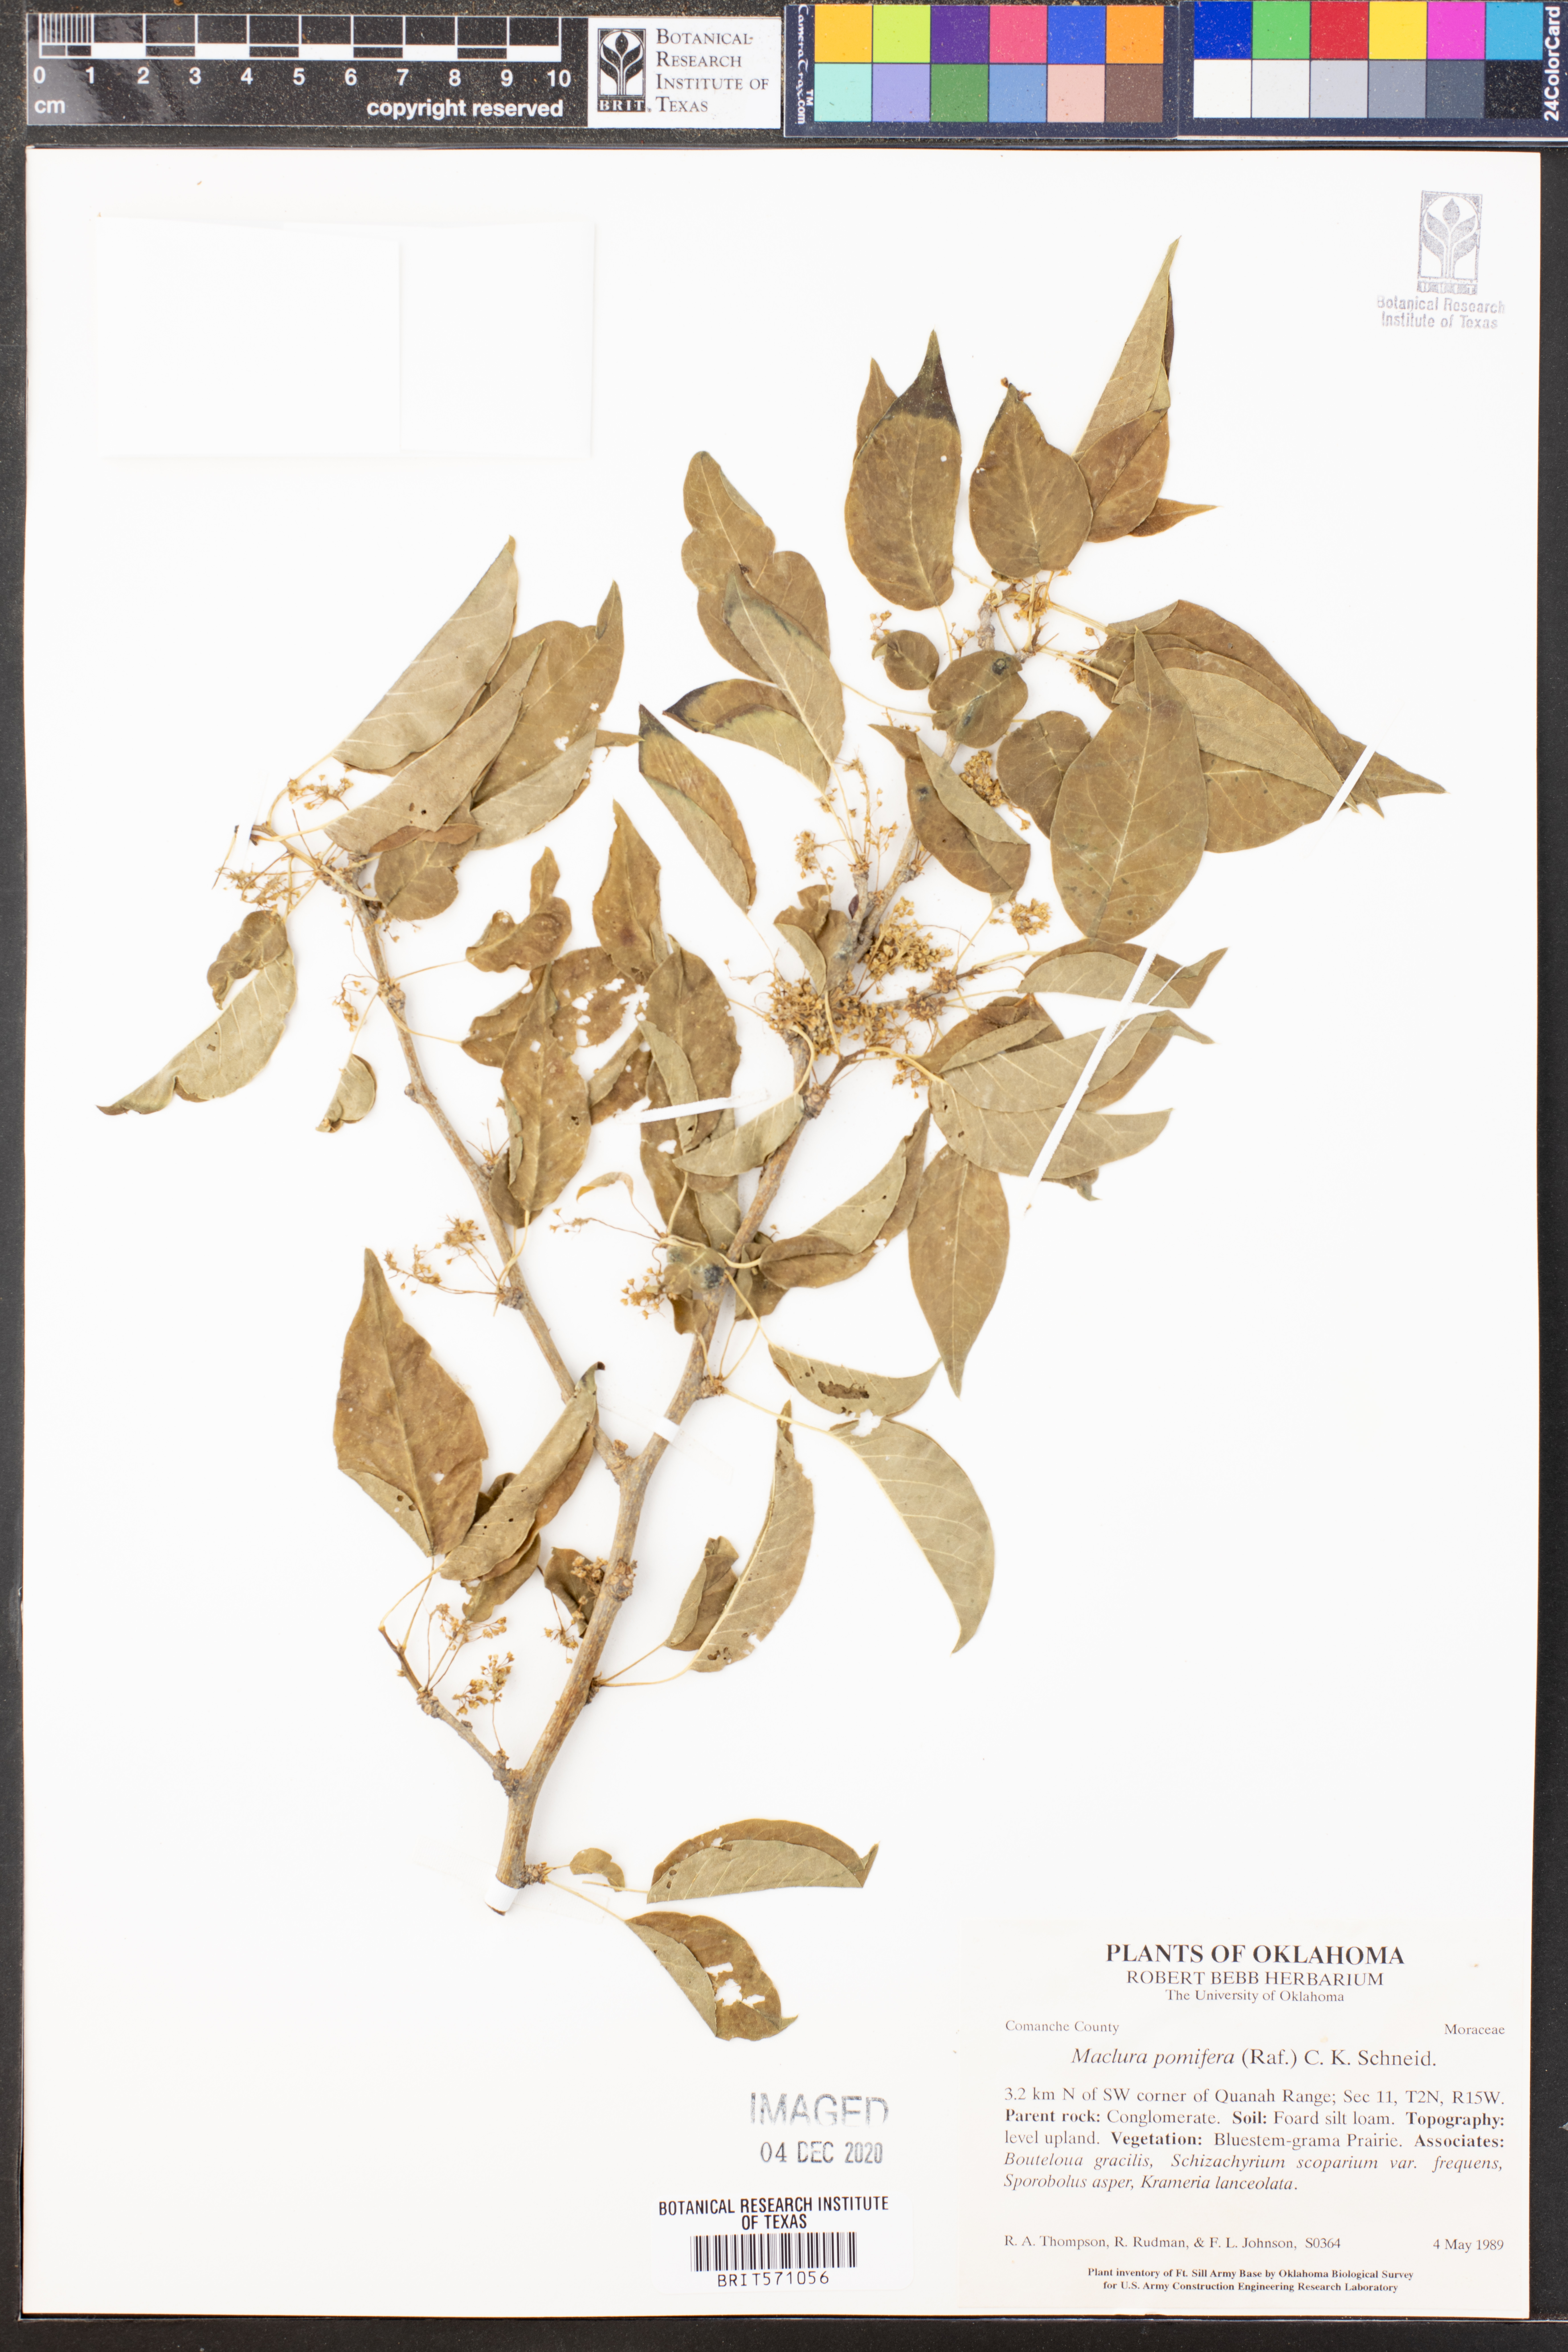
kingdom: Plantae
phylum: Tracheophyta
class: Magnoliopsida
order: Rosales
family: Moraceae
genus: Maclura
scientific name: Maclura pomifera
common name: Osage-orange
